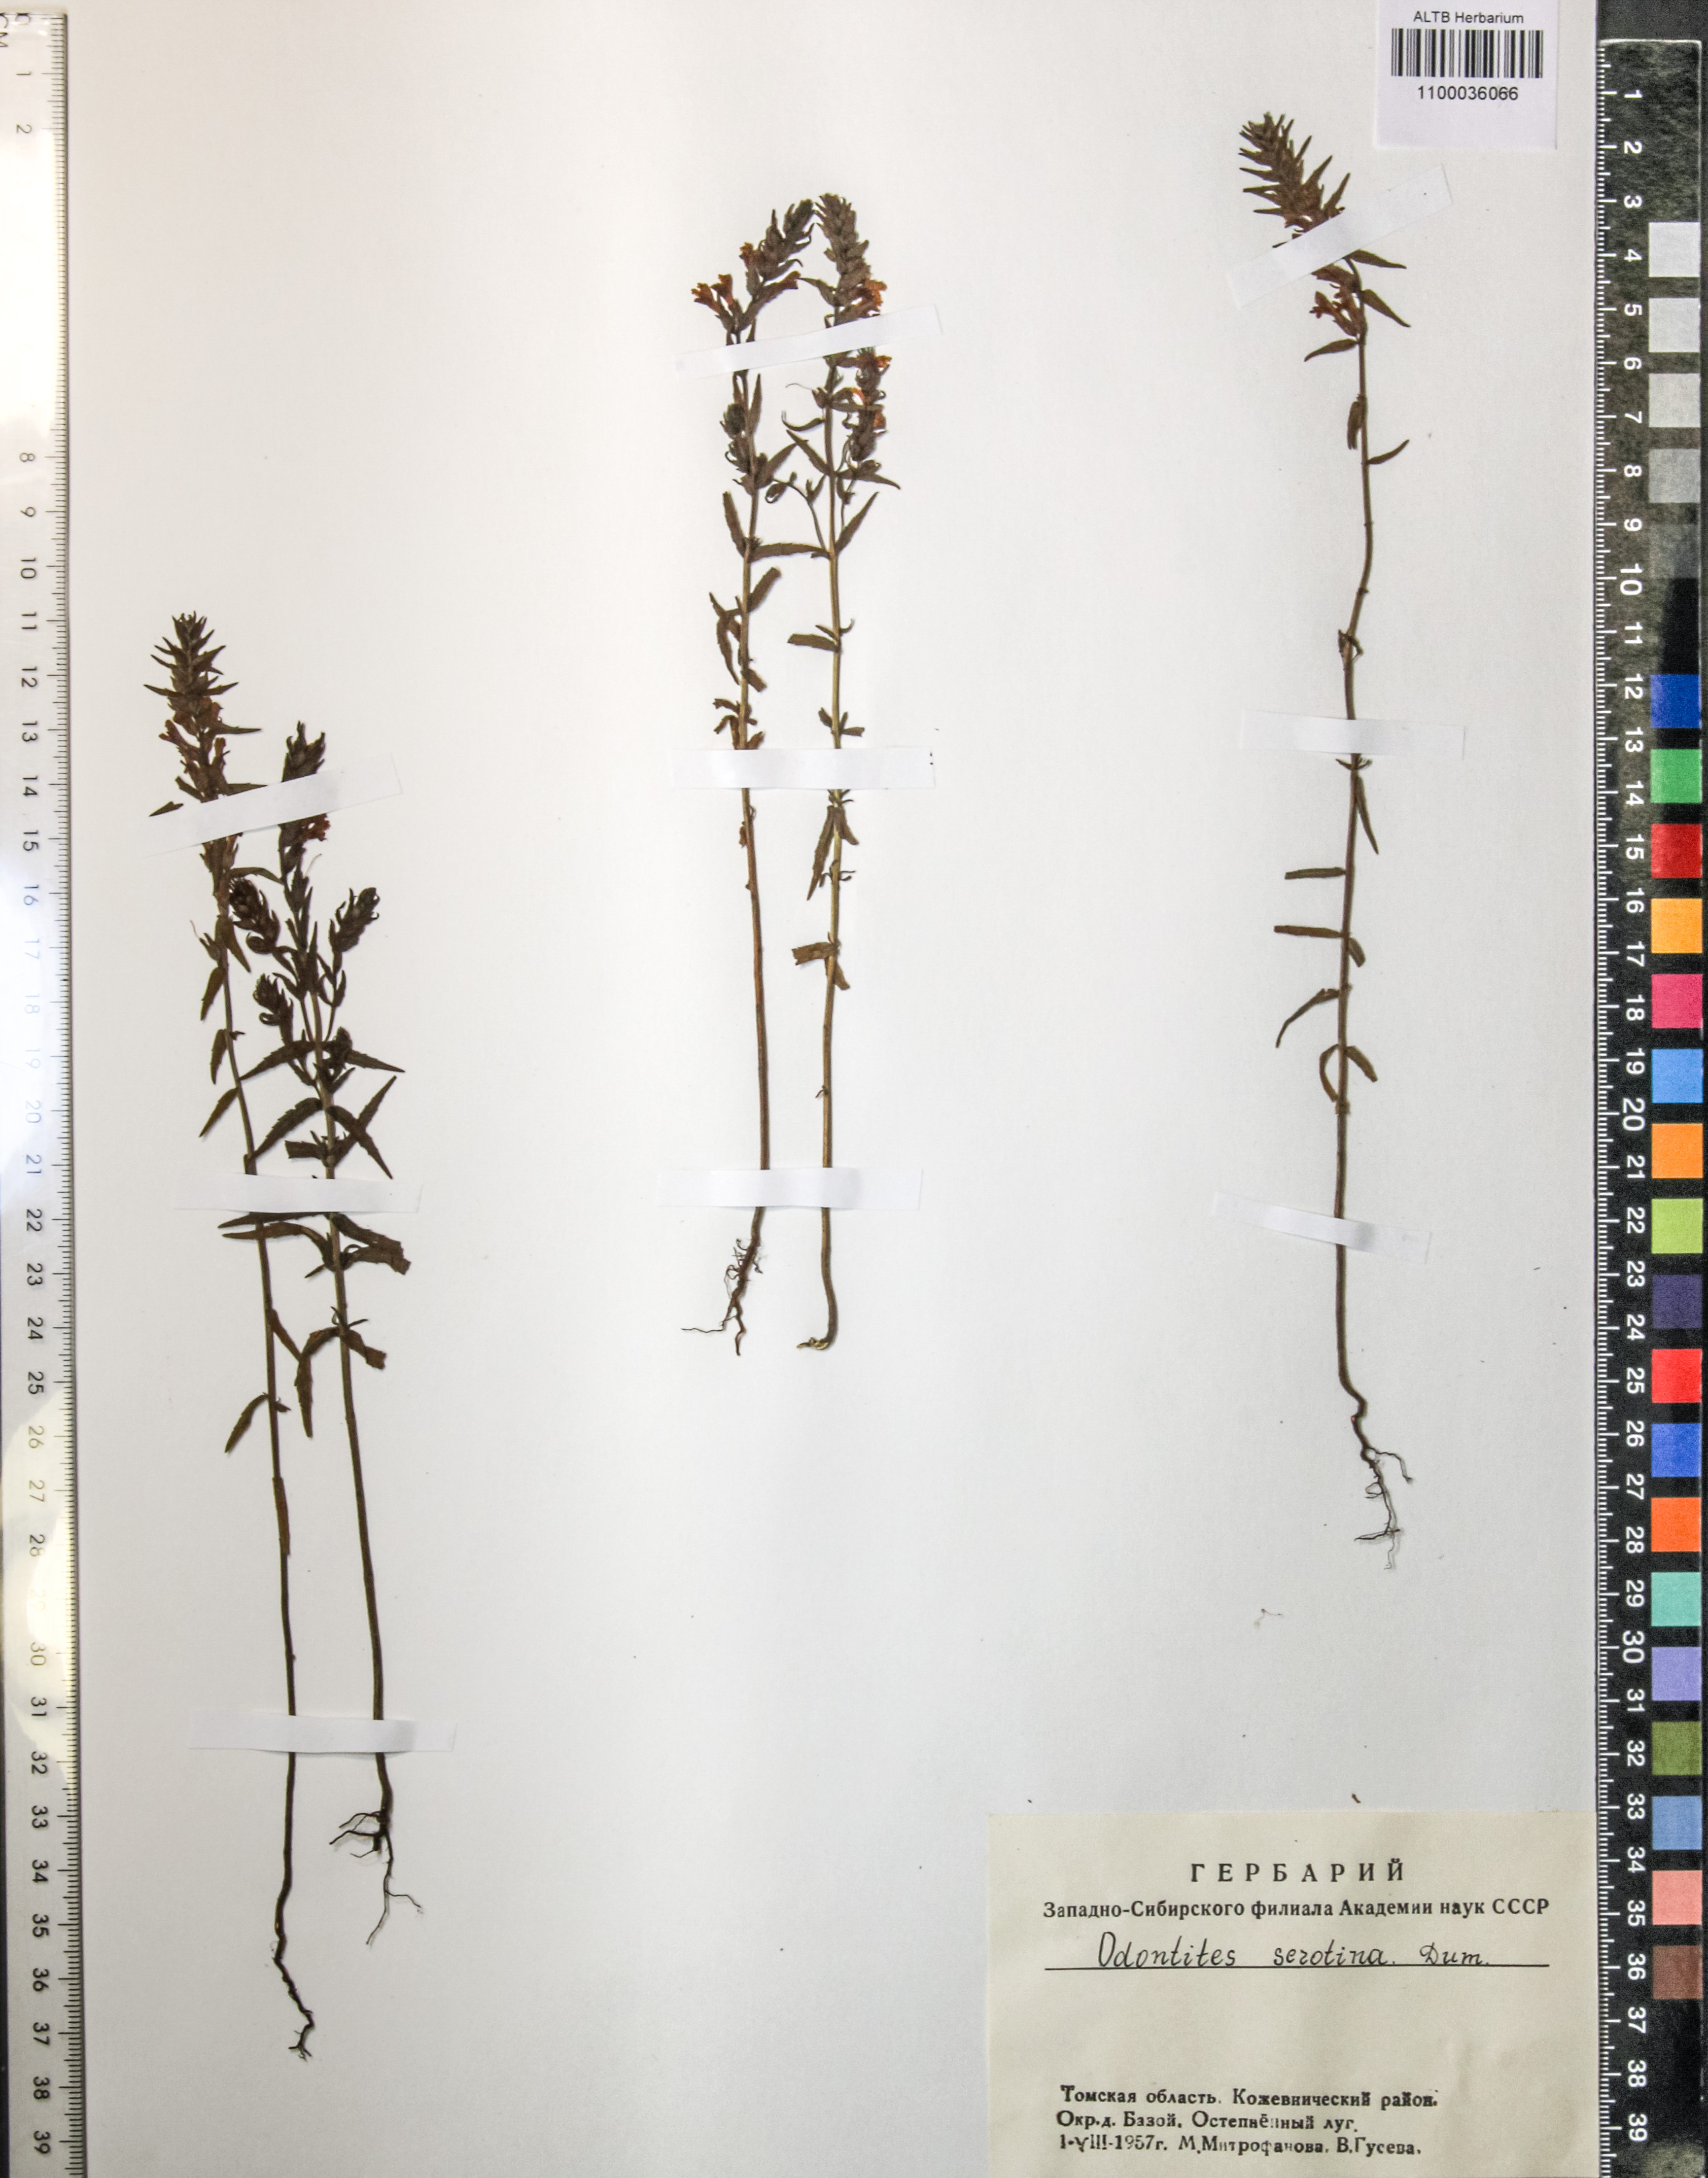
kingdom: Plantae
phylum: Tracheophyta
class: Magnoliopsida
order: Lamiales
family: Orobanchaceae
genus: Odontites
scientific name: Odontites vulgaris
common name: Broomrape
